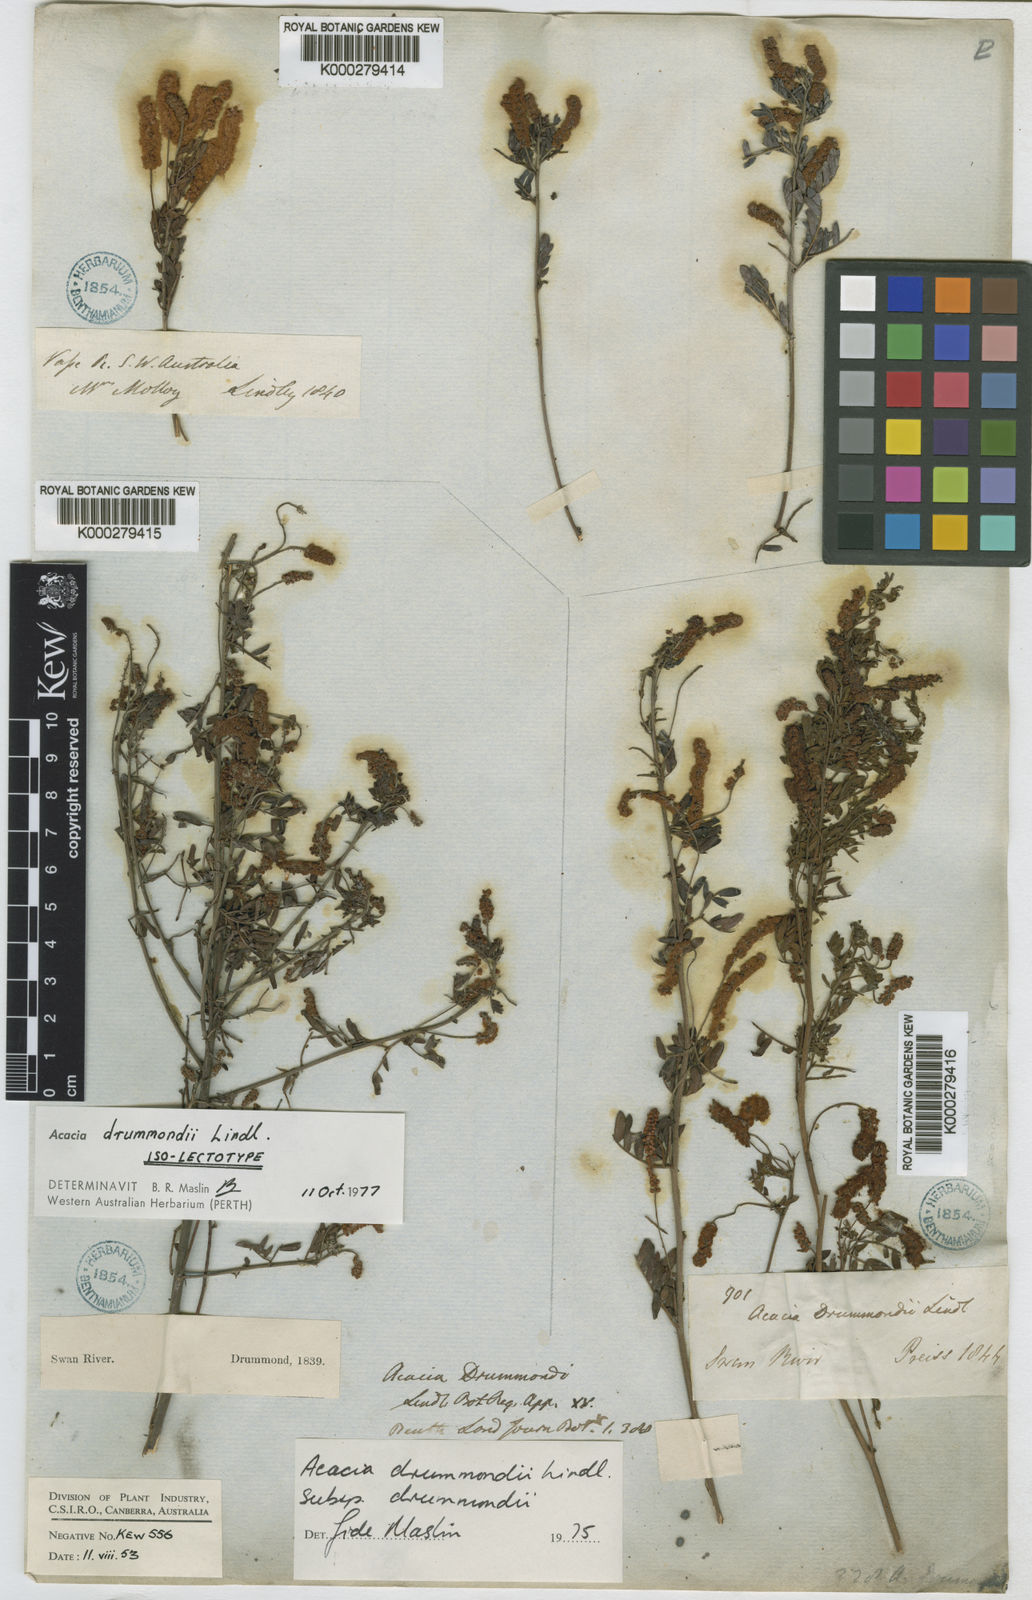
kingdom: Plantae
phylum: Tracheophyta
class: Magnoliopsida
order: Fabales
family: Fabaceae
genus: Acacia
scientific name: Acacia drummondii
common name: Drummond's wattle
